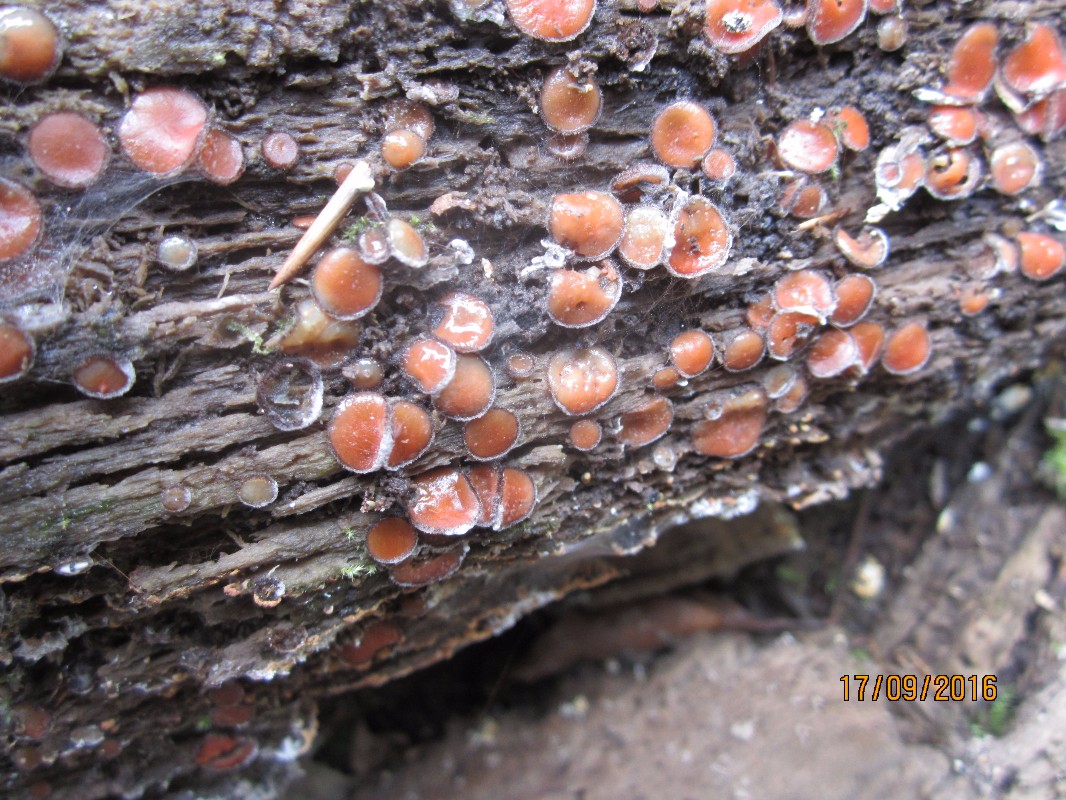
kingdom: Fungi
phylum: Ascomycota
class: Pezizomycetes
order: Pezizales
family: Pyronemataceae
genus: Scutellinia
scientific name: Scutellinia
